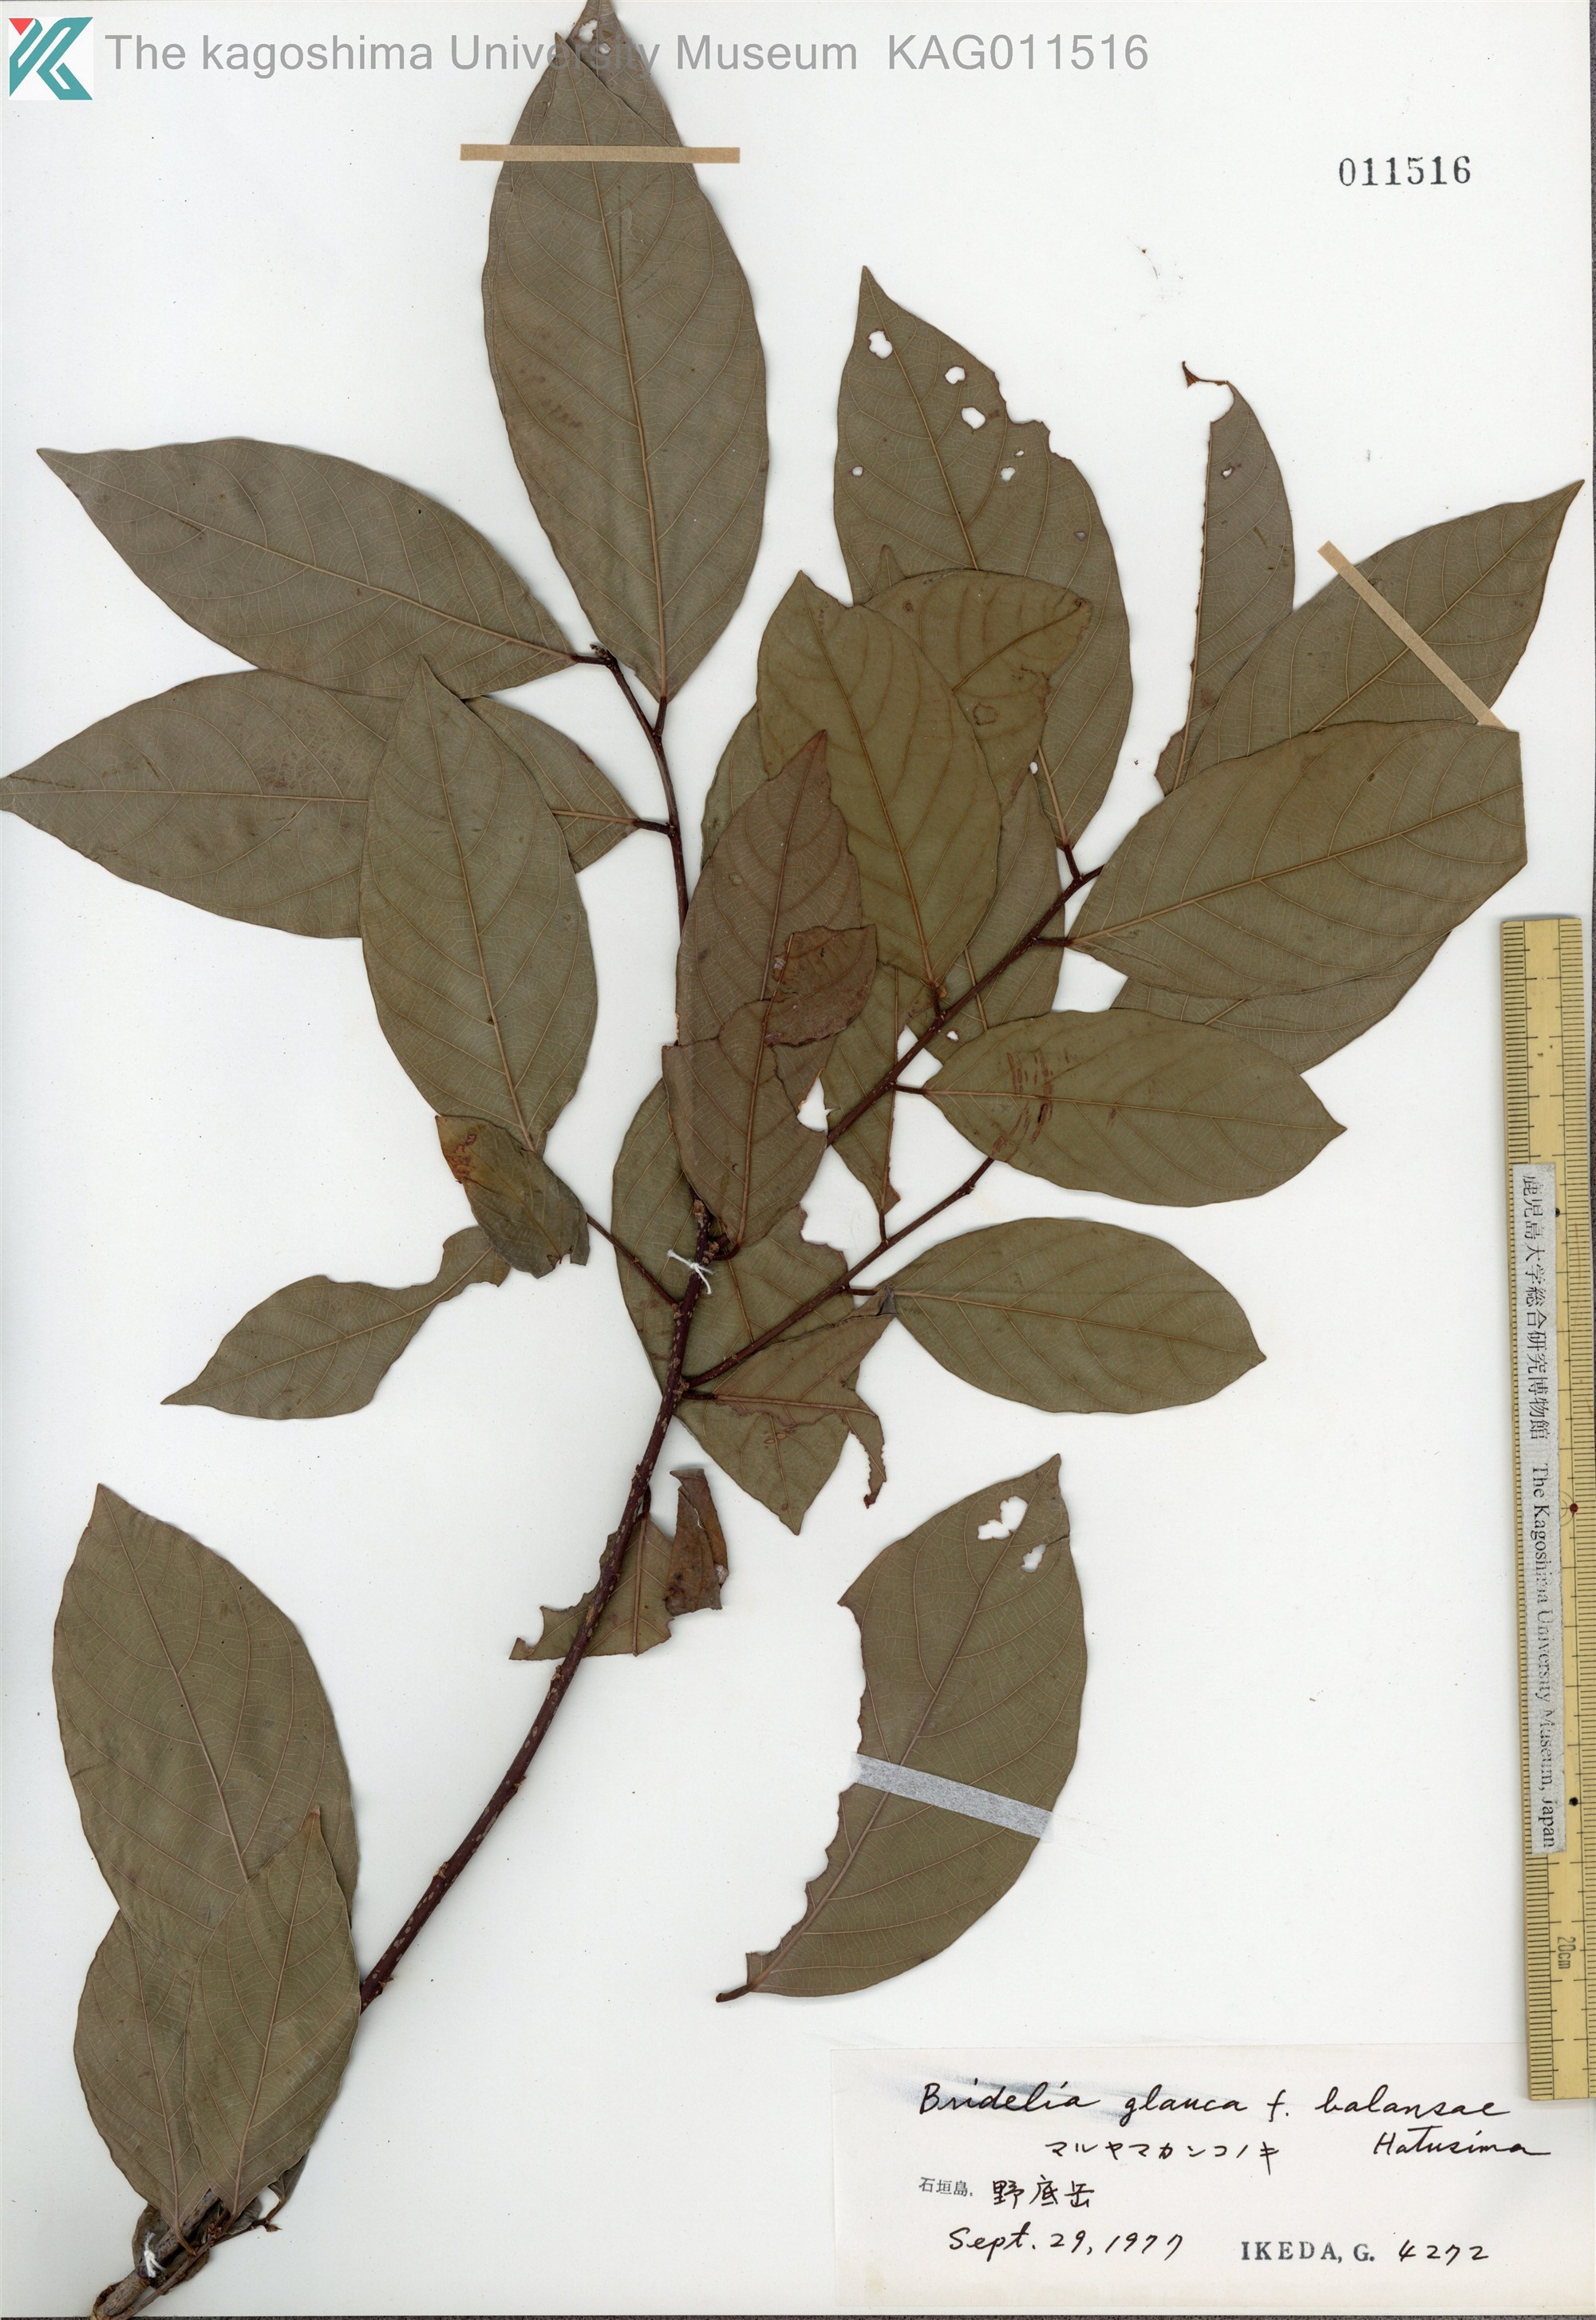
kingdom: Plantae
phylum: Tracheophyta
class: Magnoliopsida
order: Malpighiales
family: Phyllanthaceae
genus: Bridelia
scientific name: Bridelia balansae
